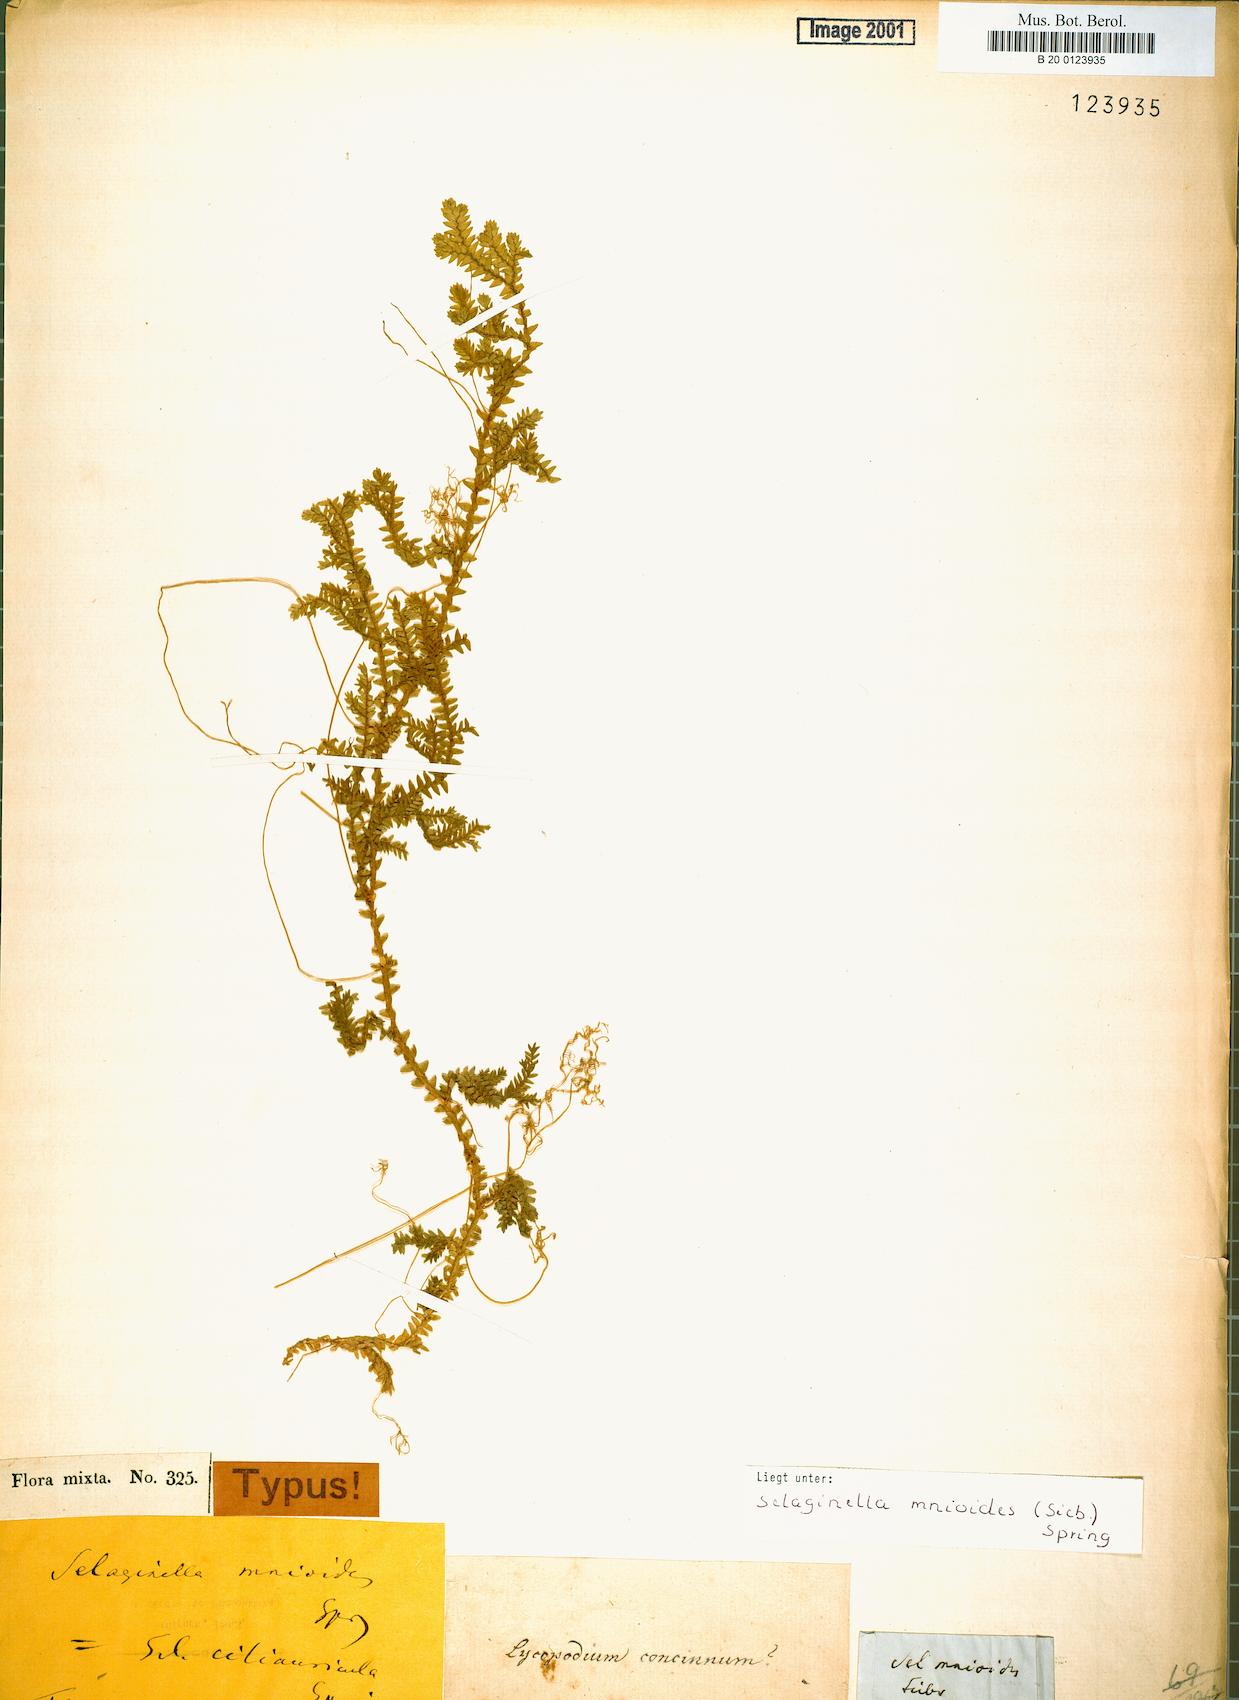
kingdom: Plantae
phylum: Tracheophyta
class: Lycopodiopsida
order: Selaginellales
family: Selaginellaceae
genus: Selaginella
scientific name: Selaginella diffusa
